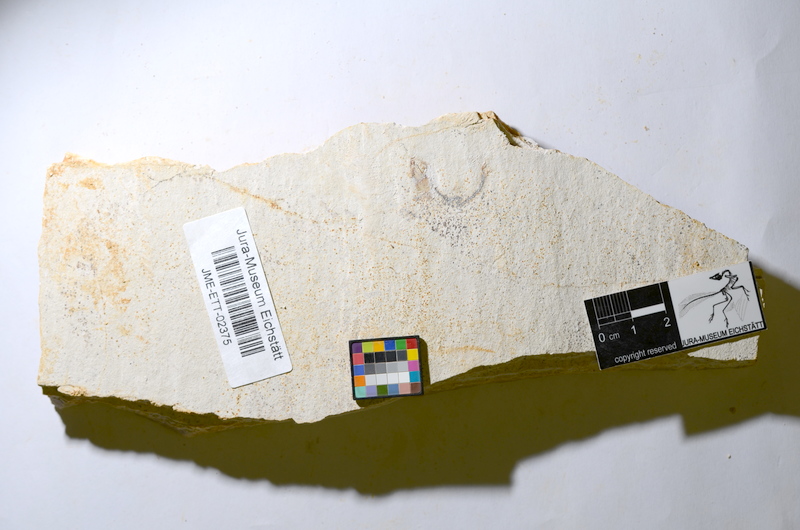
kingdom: Animalia
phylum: Chordata
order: Salmoniformes
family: Orthogonikleithridae
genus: Orthogonikleithrus
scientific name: Orthogonikleithrus hoelli
